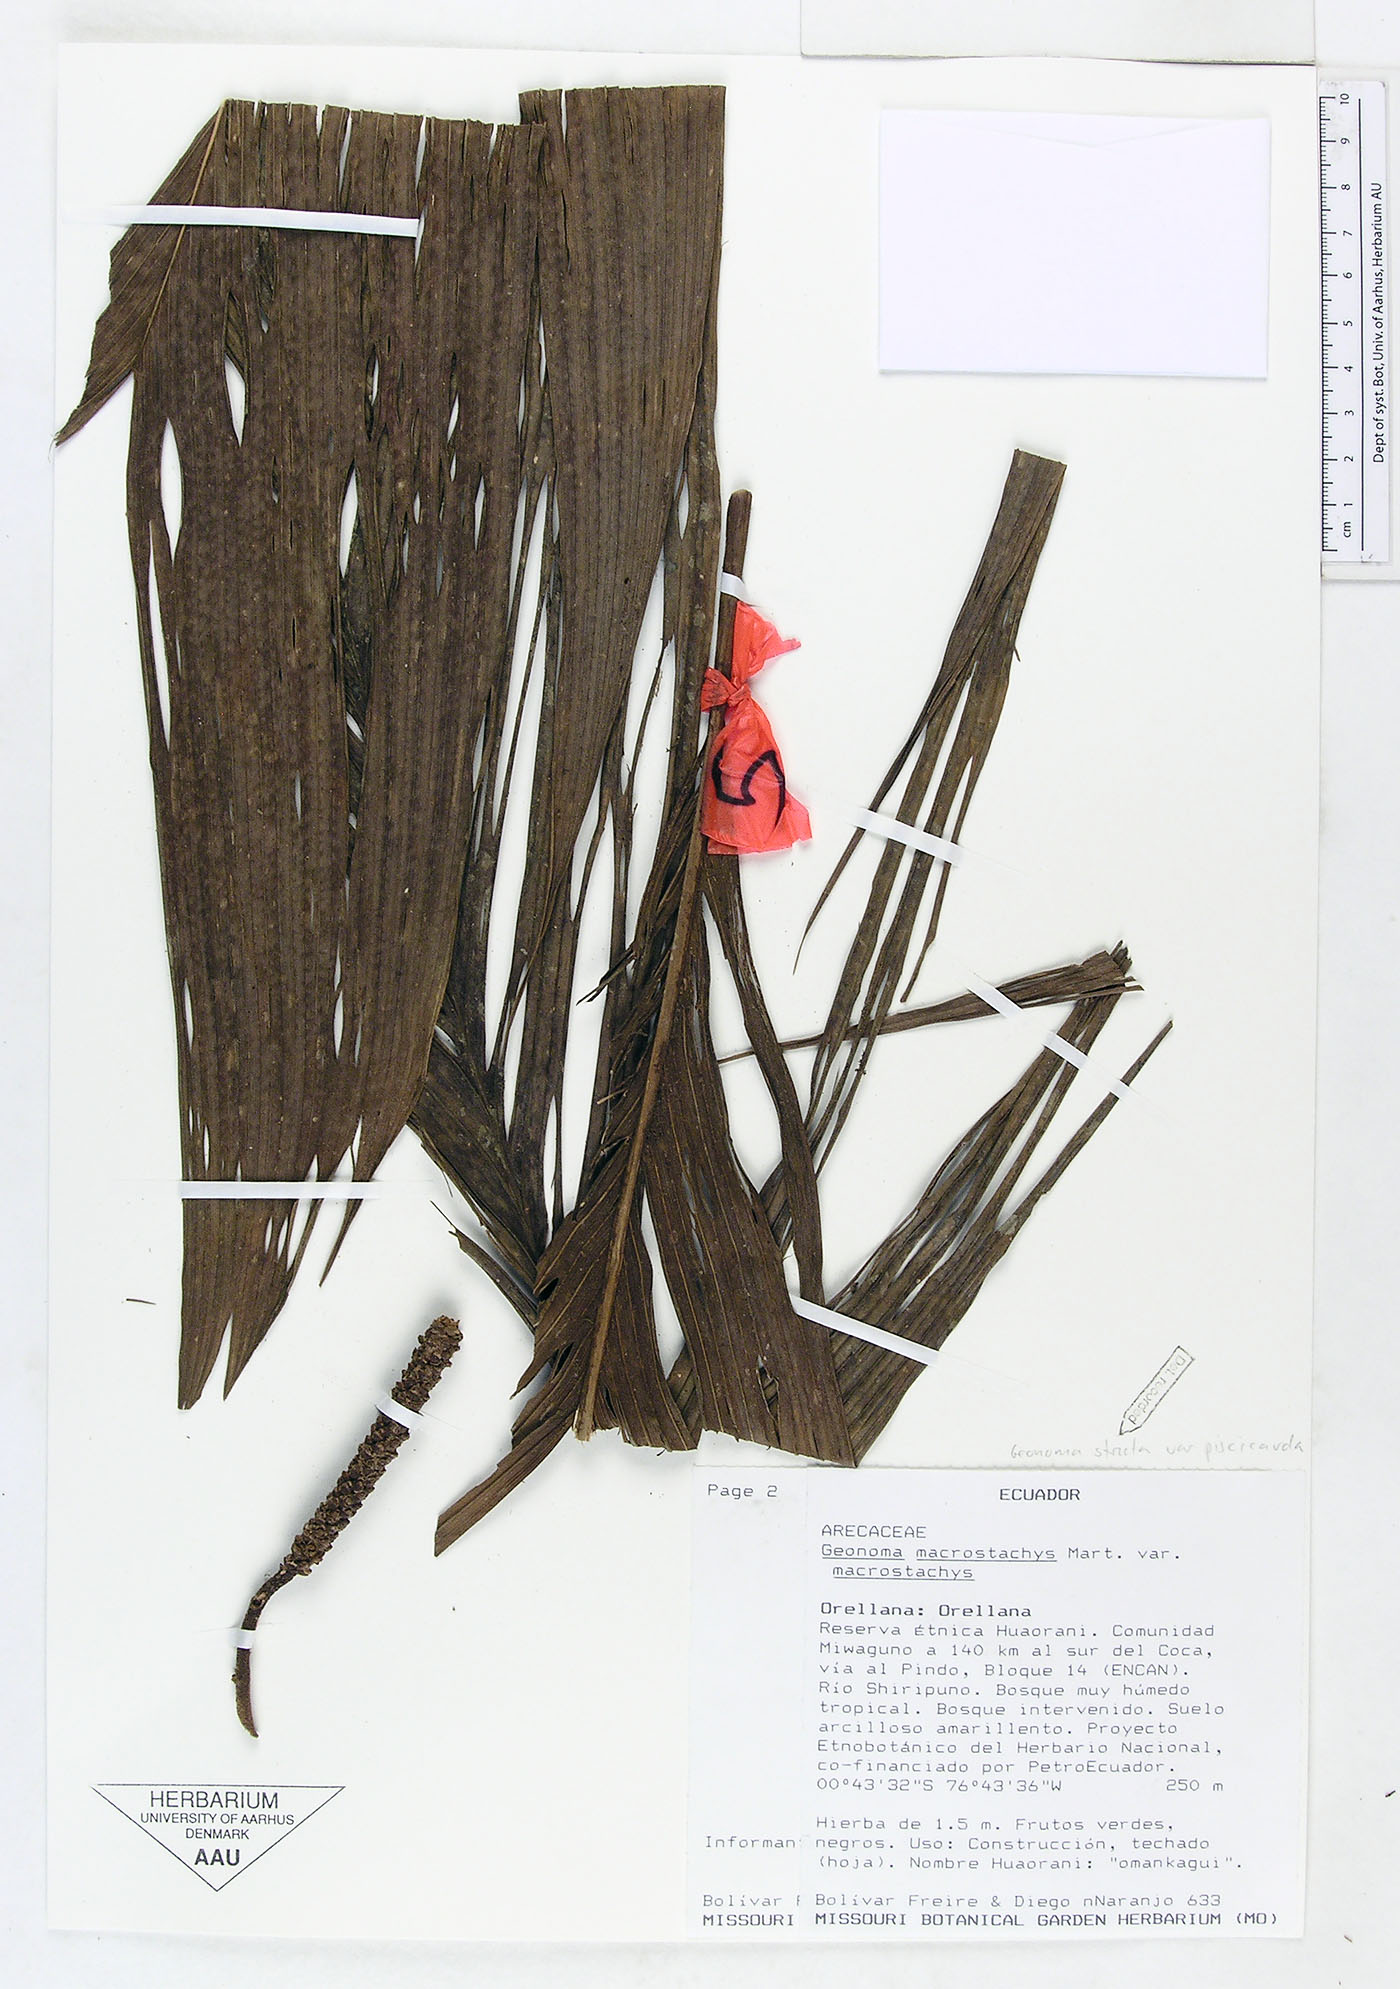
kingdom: Plantae
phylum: Tracheophyta
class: Liliopsida
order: Arecales
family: Arecaceae
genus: Geonoma
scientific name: Geonoma stricta
